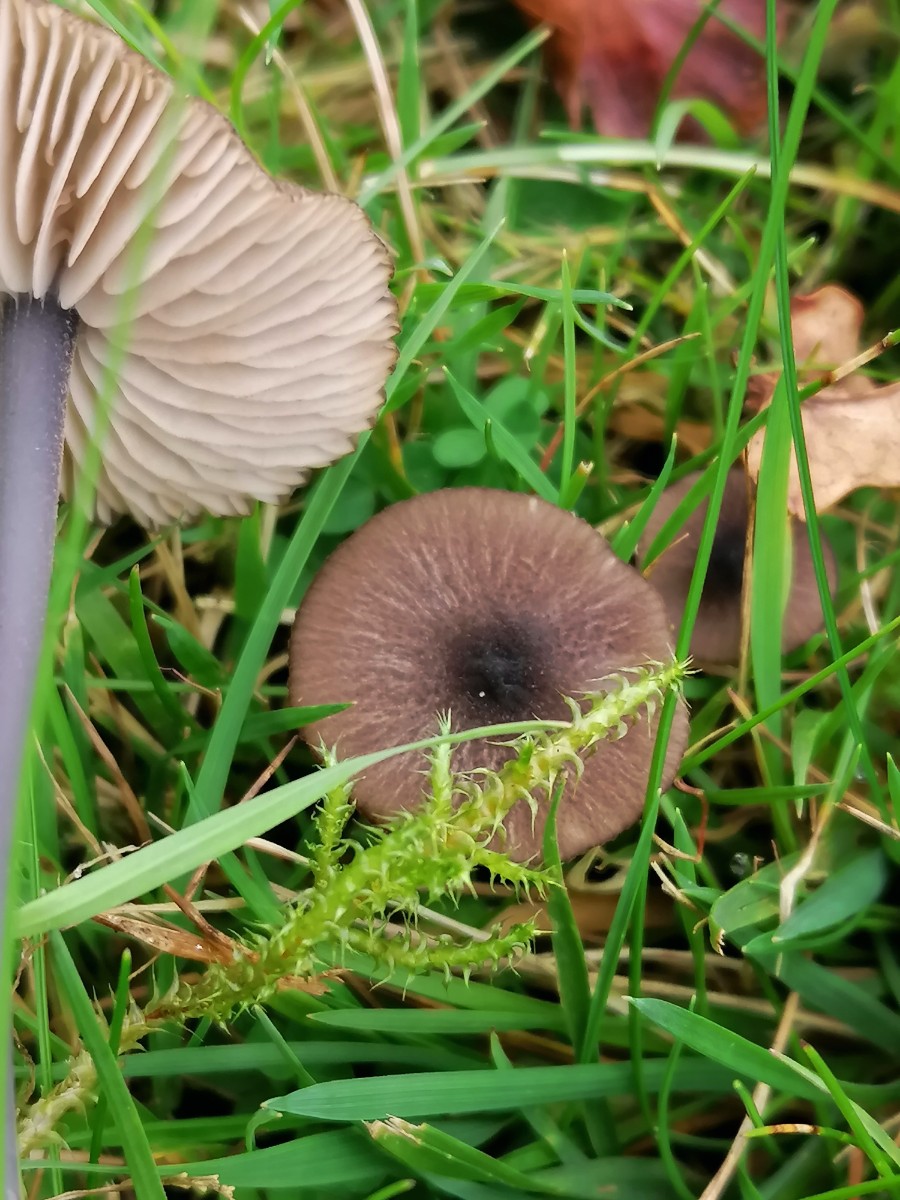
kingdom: Fungi
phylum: Basidiomycota
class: Agaricomycetes
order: Agaricales
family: Entolomataceae
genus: Entoloma
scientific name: Entoloma
